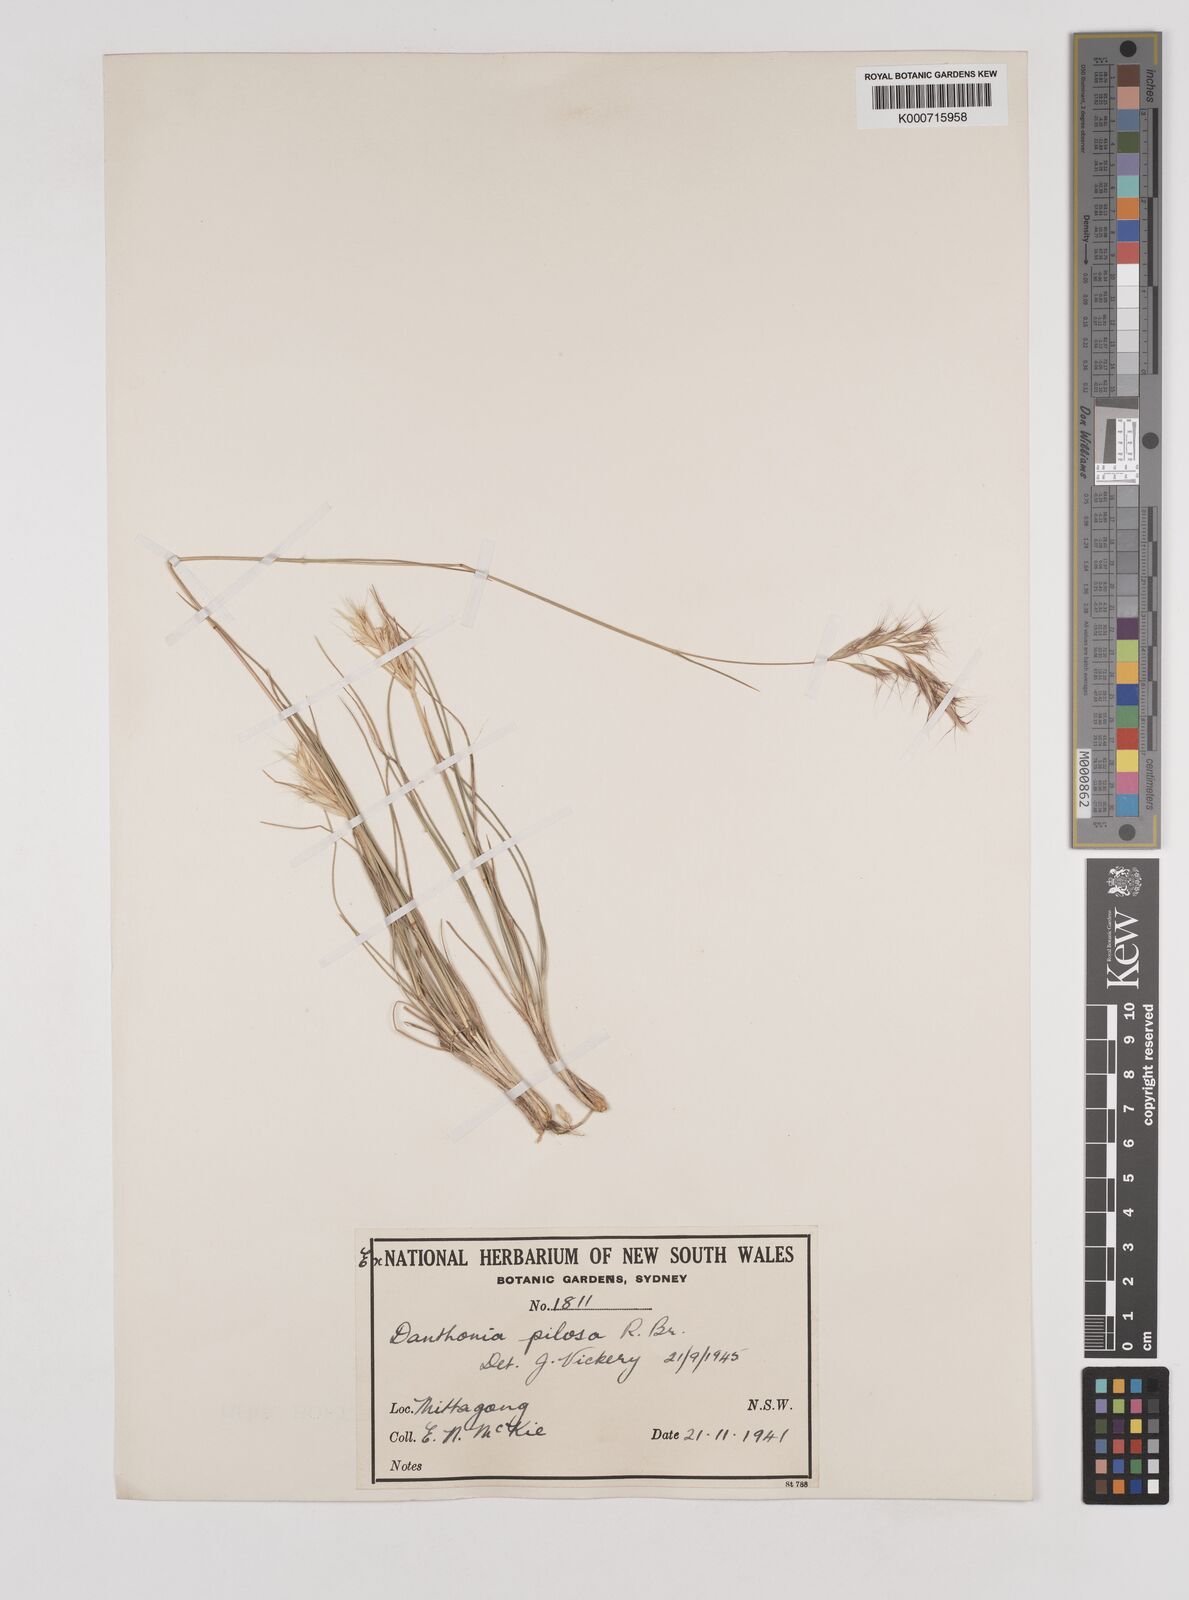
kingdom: Plantae
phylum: Tracheophyta
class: Liliopsida
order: Poales
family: Poaceae
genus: Rytidosperma
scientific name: Rytidosperma pilosum
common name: Hairy wallaby grass
